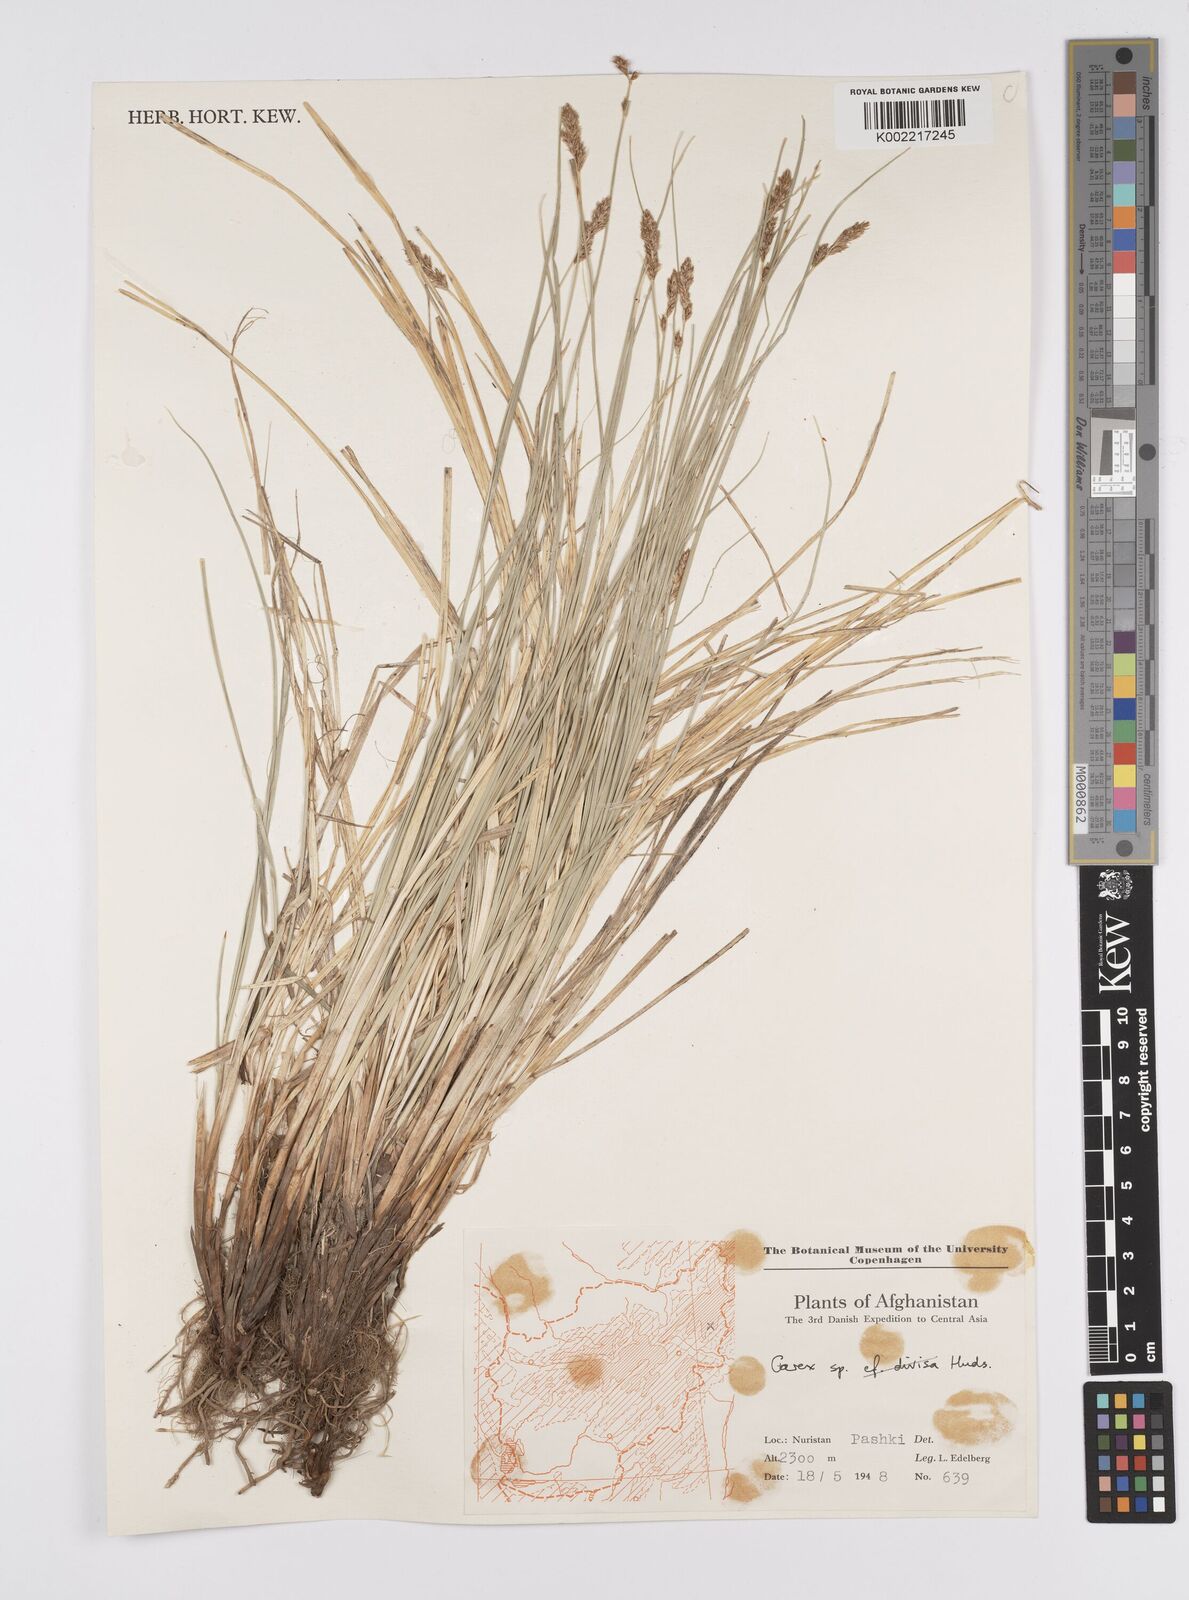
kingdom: Plantae
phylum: Tracheophyta
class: Liliopsida
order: Poales
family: Cyperaceae
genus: Carex
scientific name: Carex
